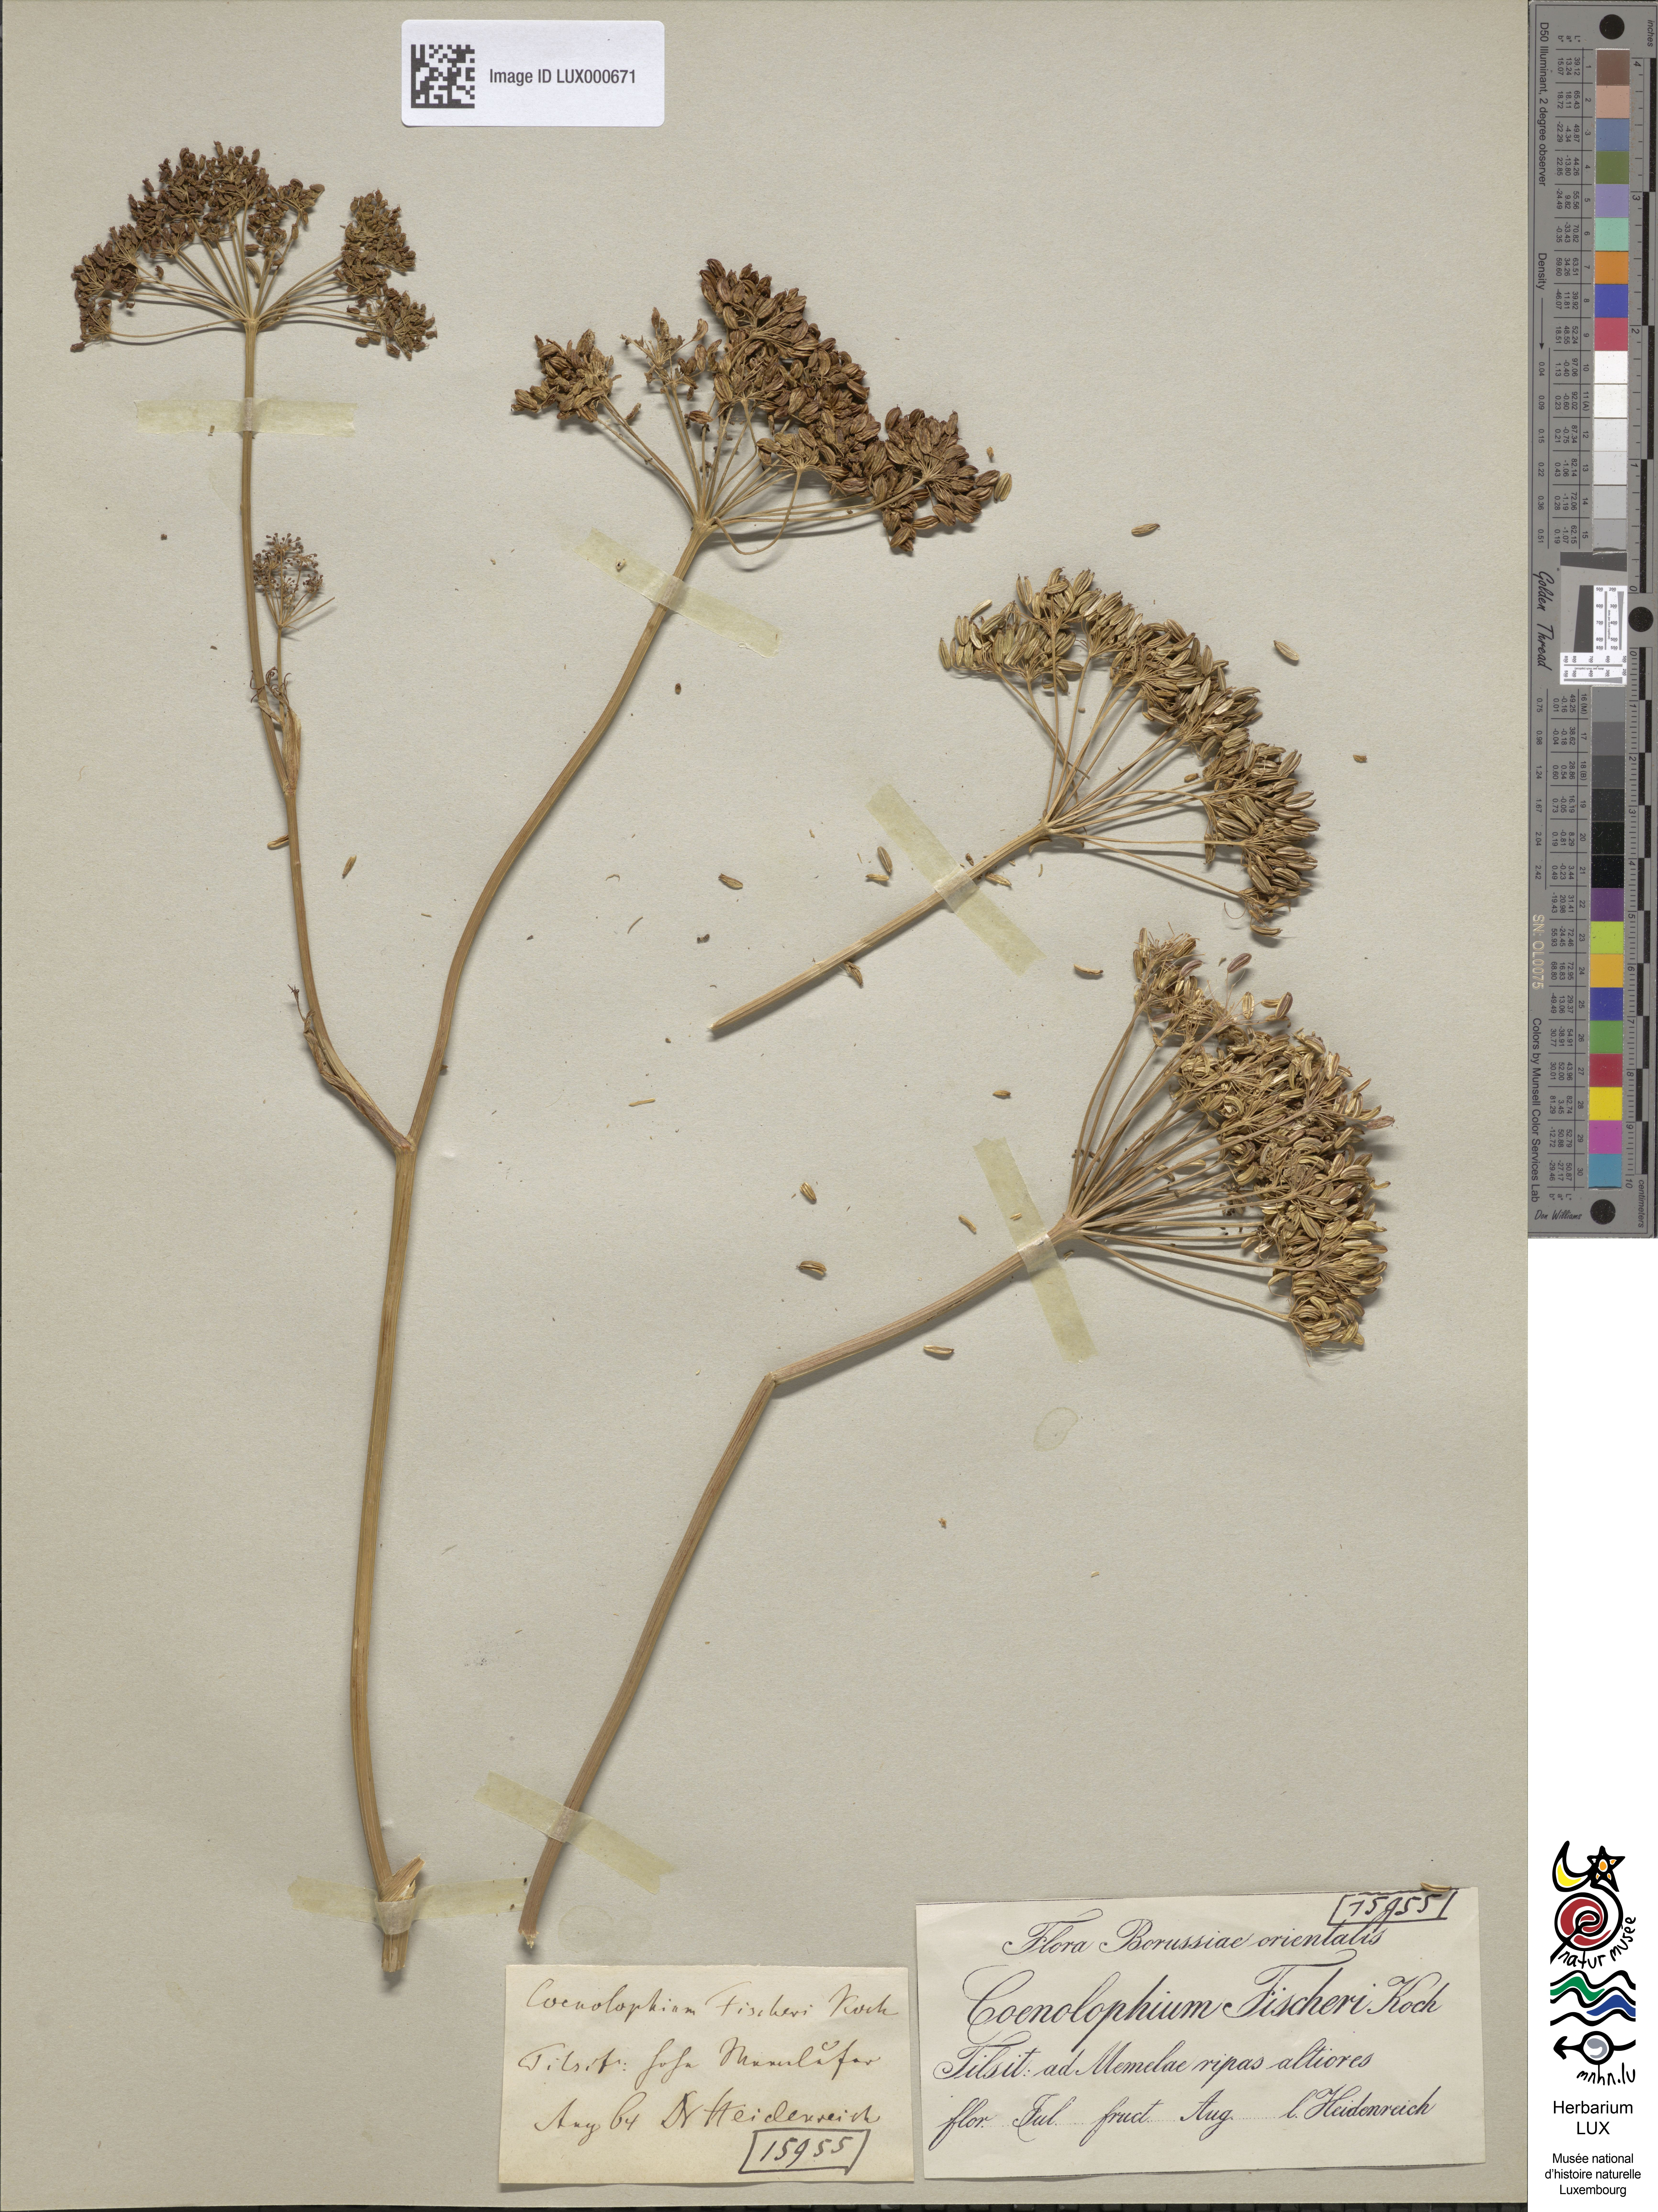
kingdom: Plantae
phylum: Tracheophyta
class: Magnoliopsida
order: Apiales
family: Apiaceae
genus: Cenolophium
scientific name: Cenolophium fischeri
